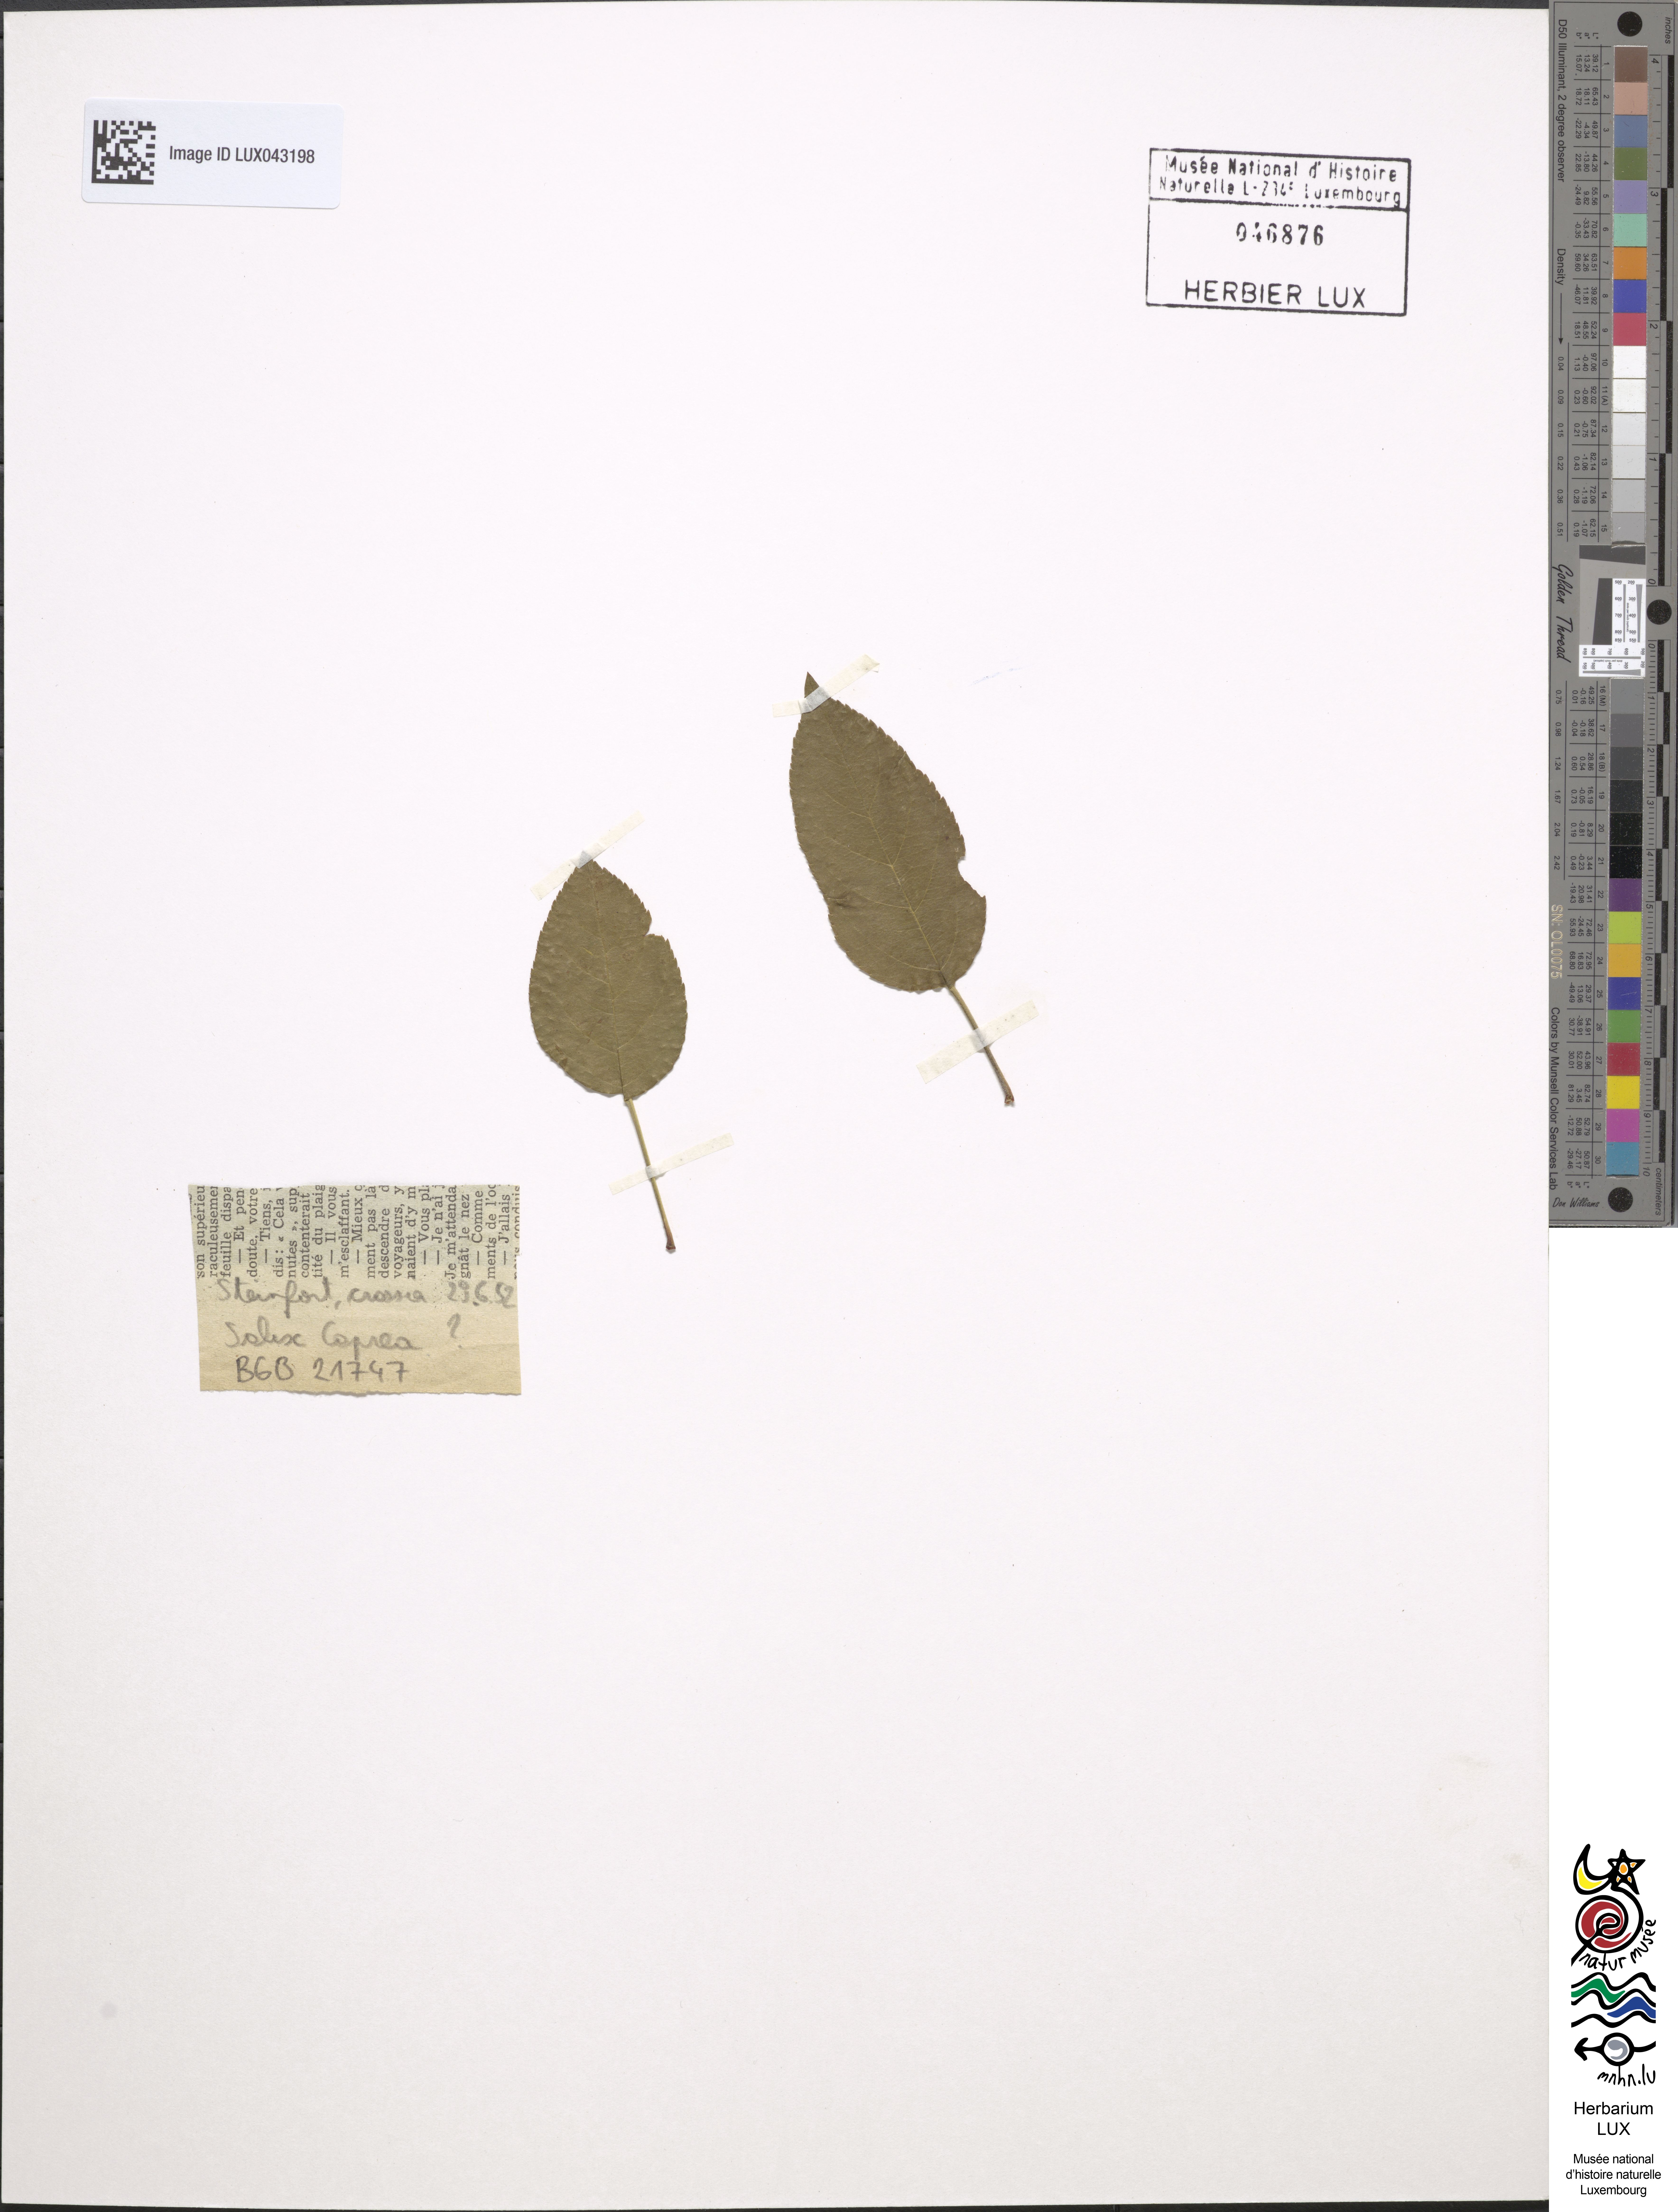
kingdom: Plantae
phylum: Tracheophyta
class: Magnoliopsida
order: Malpighiales
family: Salicaceae
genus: Salix
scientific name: Salix caprea
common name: Goat willow
